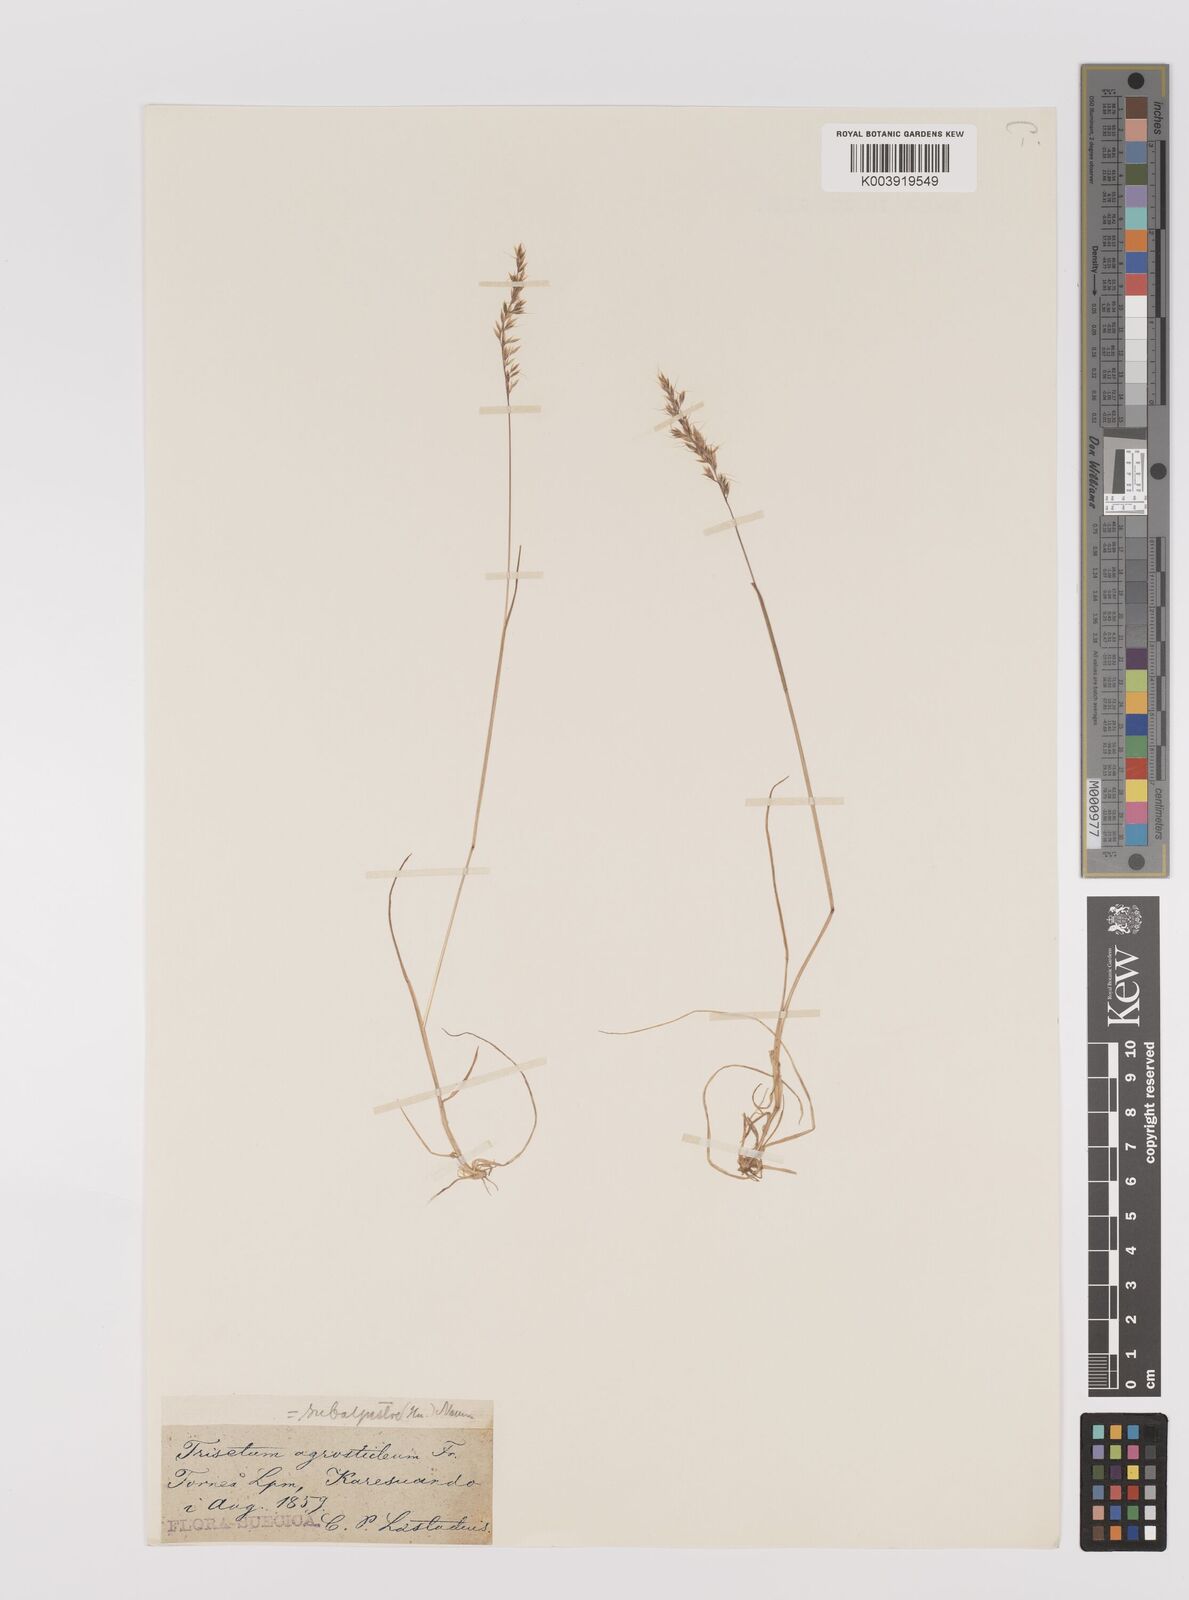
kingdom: Plantae
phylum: Tracheophyta
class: Liliopsida
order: Poales
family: Poaceae
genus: Koeleria
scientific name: Koeleria subalpestris
